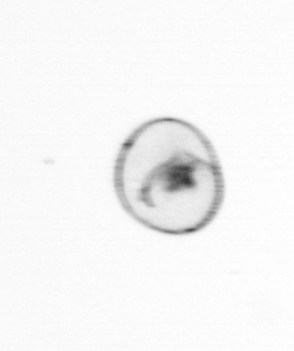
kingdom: Chromista
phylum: Myzozoa
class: Dinophyceae
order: Noctilucales
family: Noctilucaceae
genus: Noctiluca
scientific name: Noctiluca scintillans
